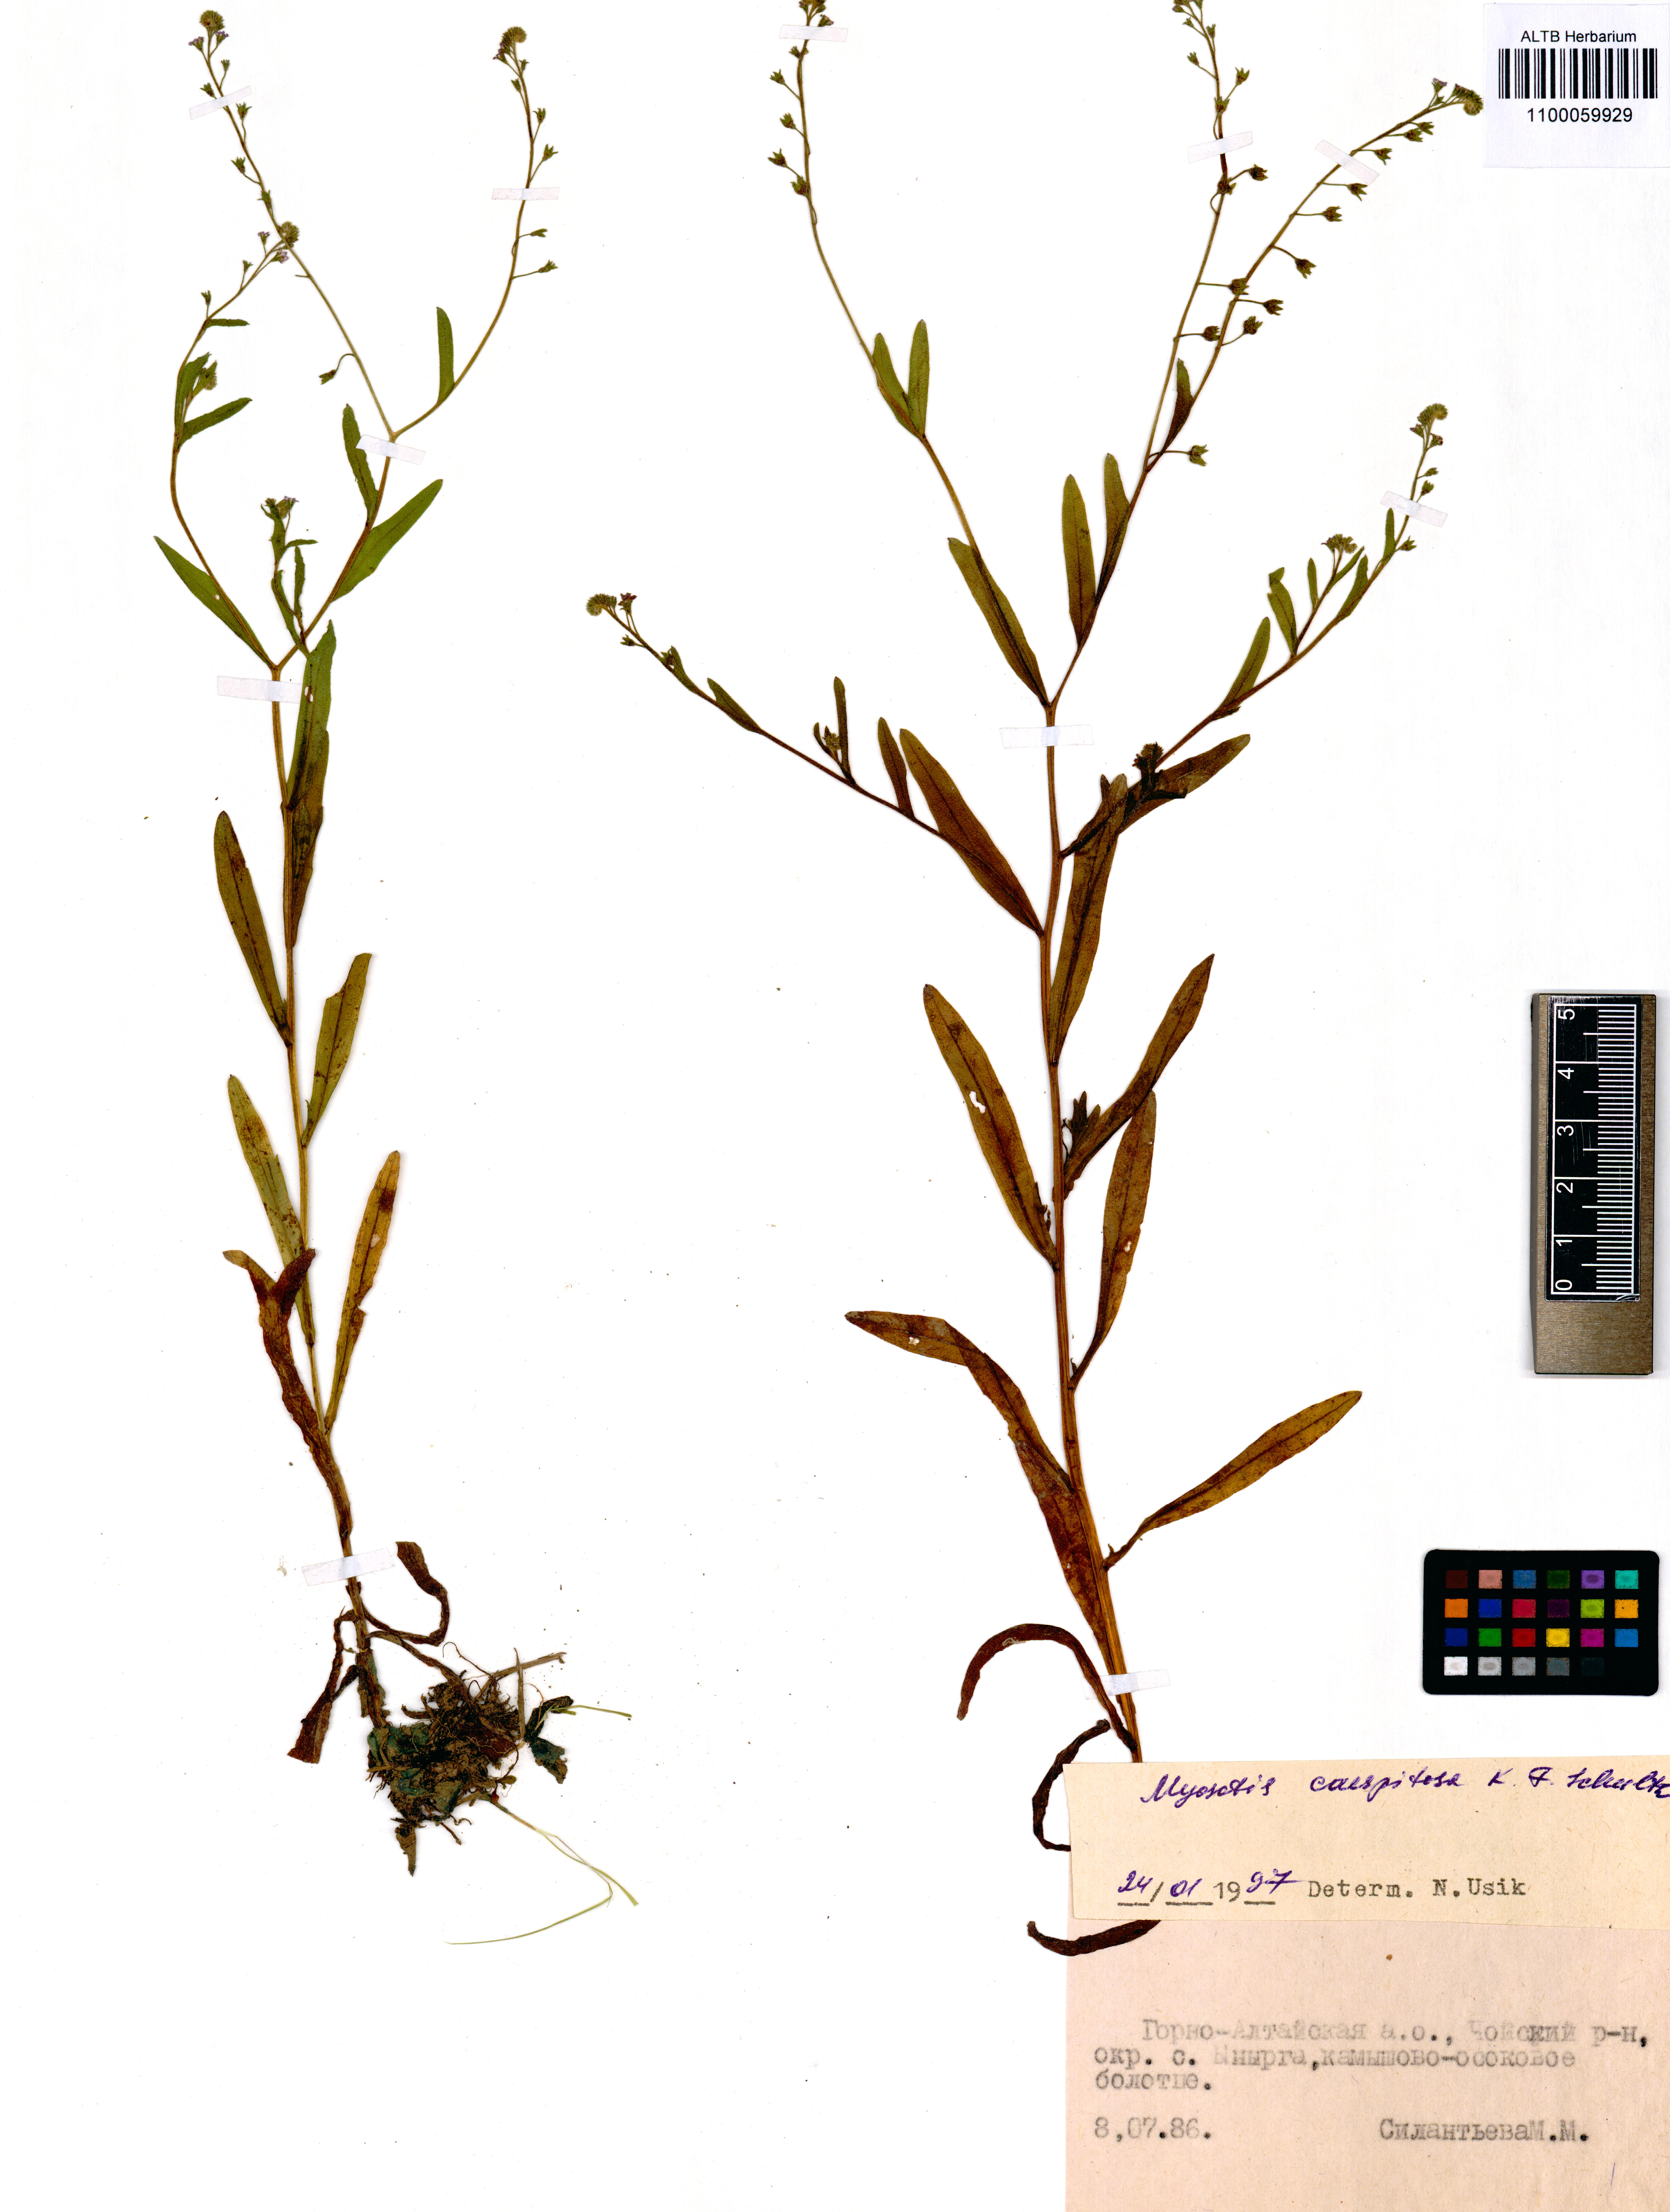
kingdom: Plantae
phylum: Tracheophyta
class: Magnoliopsida
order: Boraginales
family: Boraginaceae
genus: Myosotis
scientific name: Myosotis laxa
